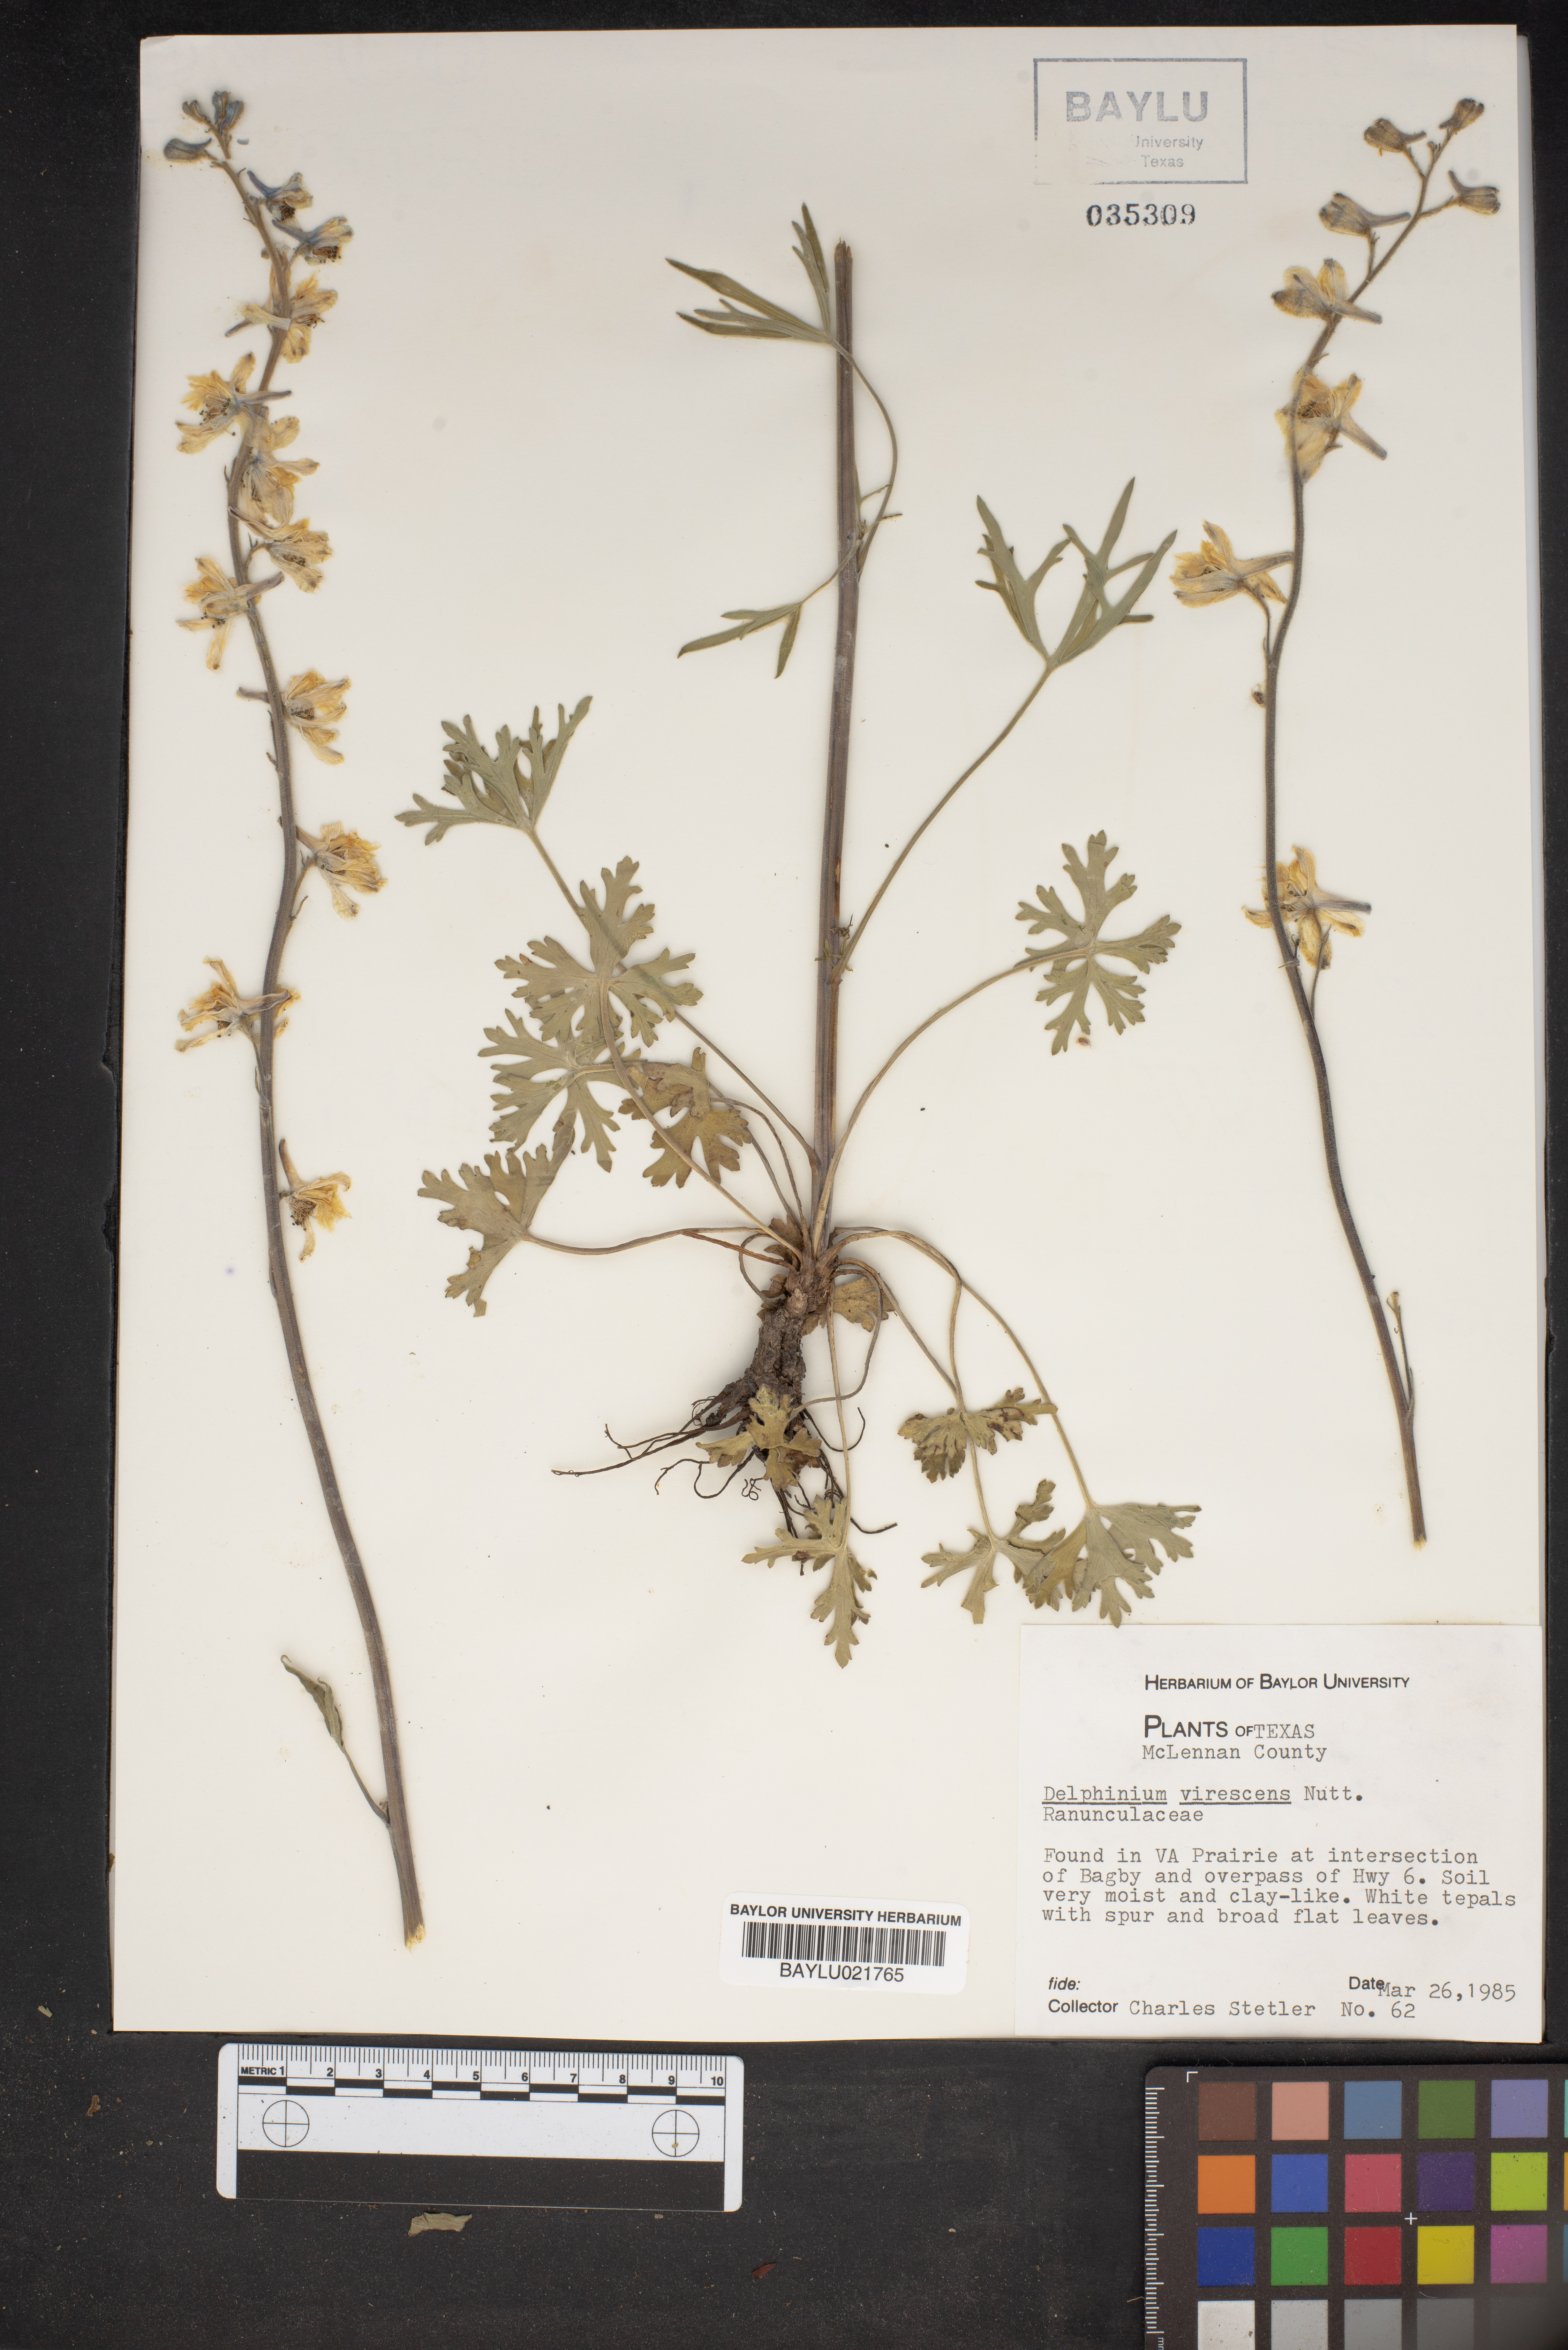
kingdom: Plantae
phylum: Tracheophyta
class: Magnoliopsida
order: Ranunculales
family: Ranunculaceae
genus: Delphinium
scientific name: Delphinium carolinianum
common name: Carolina larkspur
